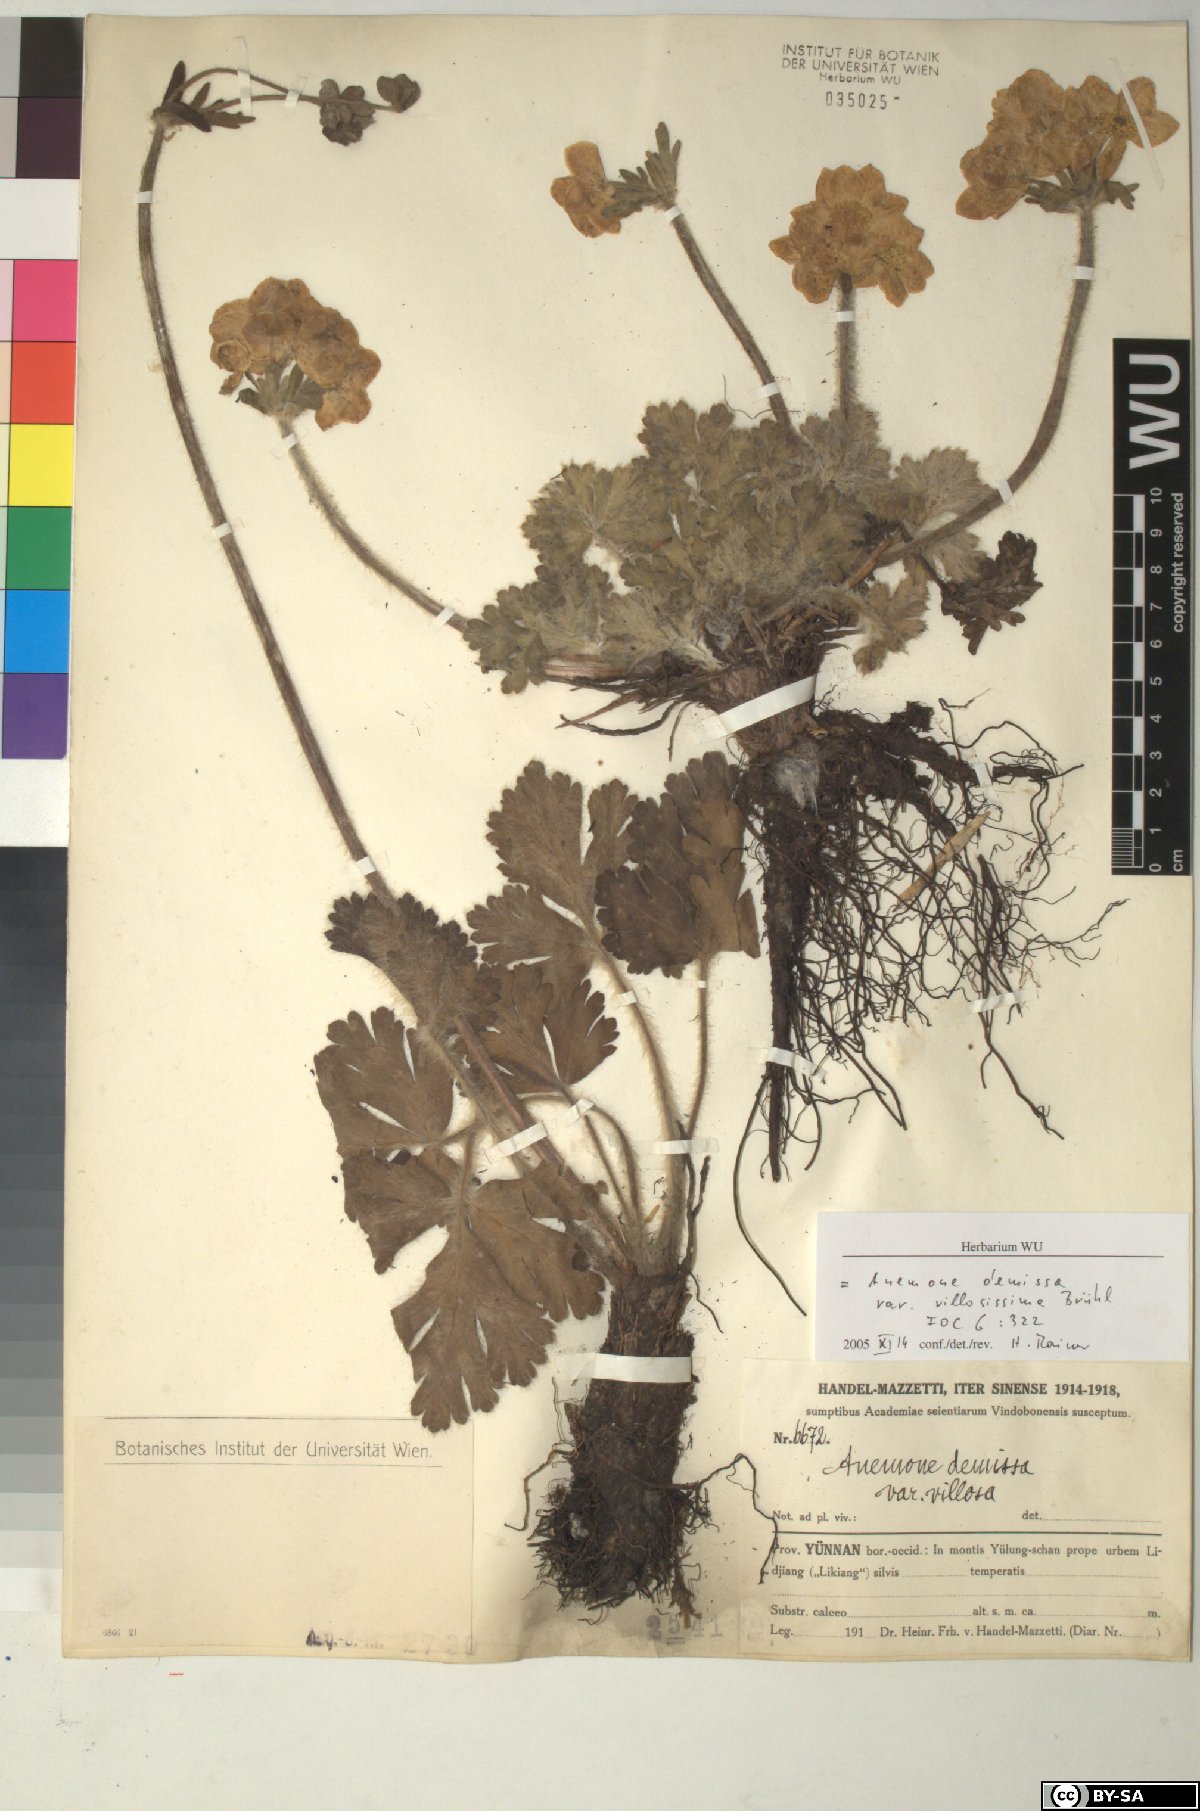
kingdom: Plantae
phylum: Tracheophyta
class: Magnoliopsida
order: Ranunculales
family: Ranunculaceae
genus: Anemonastrum
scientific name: Anemonastrum demissum
